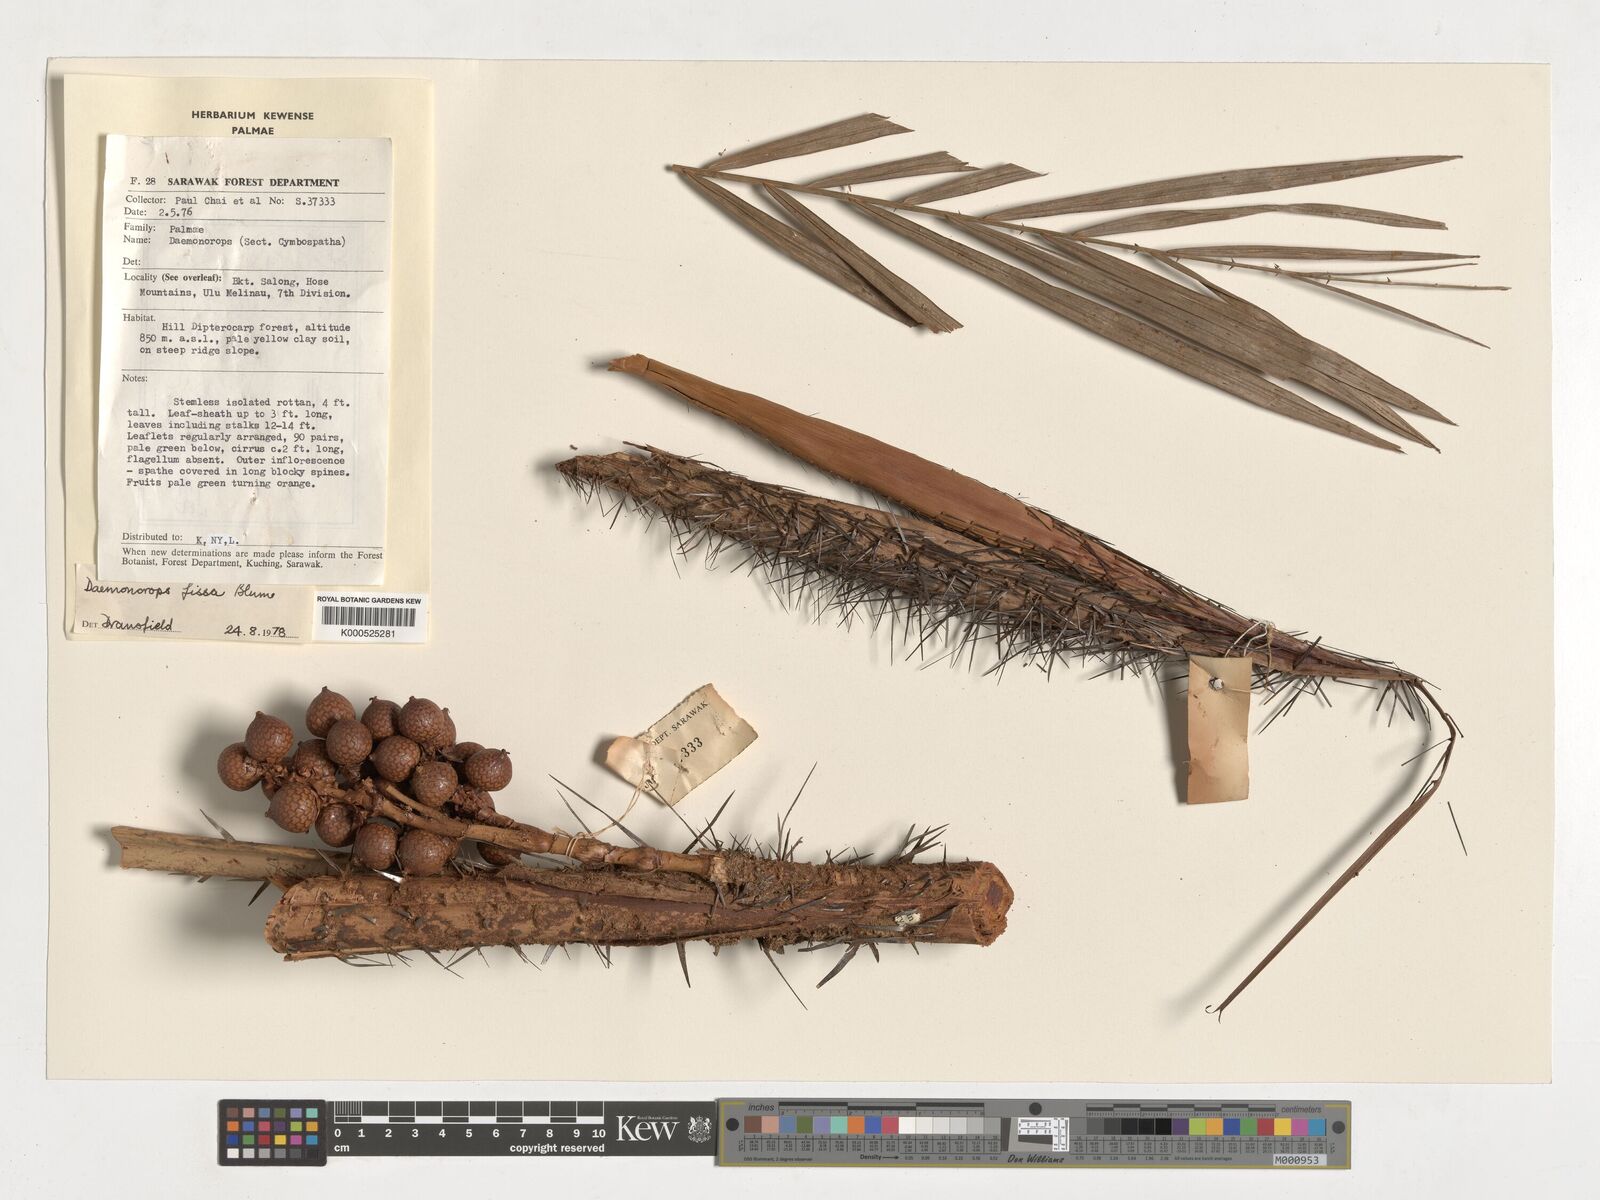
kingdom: Plantae
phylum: Tracheophyta
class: Liliopsida
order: Arecales
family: Arecaceae
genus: Calamus
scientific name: Calamus melanochaetes
